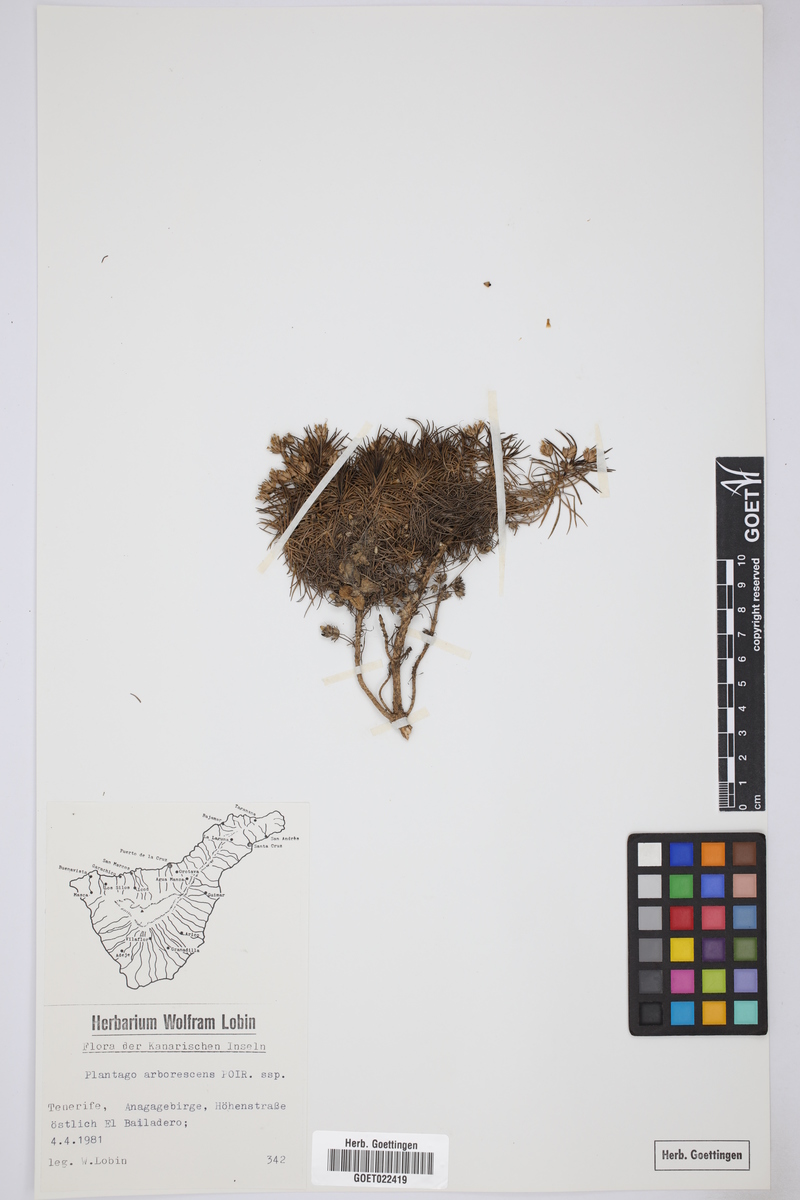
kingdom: Plantae
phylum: Tracheophyta
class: Magnoliopsida
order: Lamiales
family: Plantaginaceae
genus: Plantago
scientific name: Plantago arborescens
